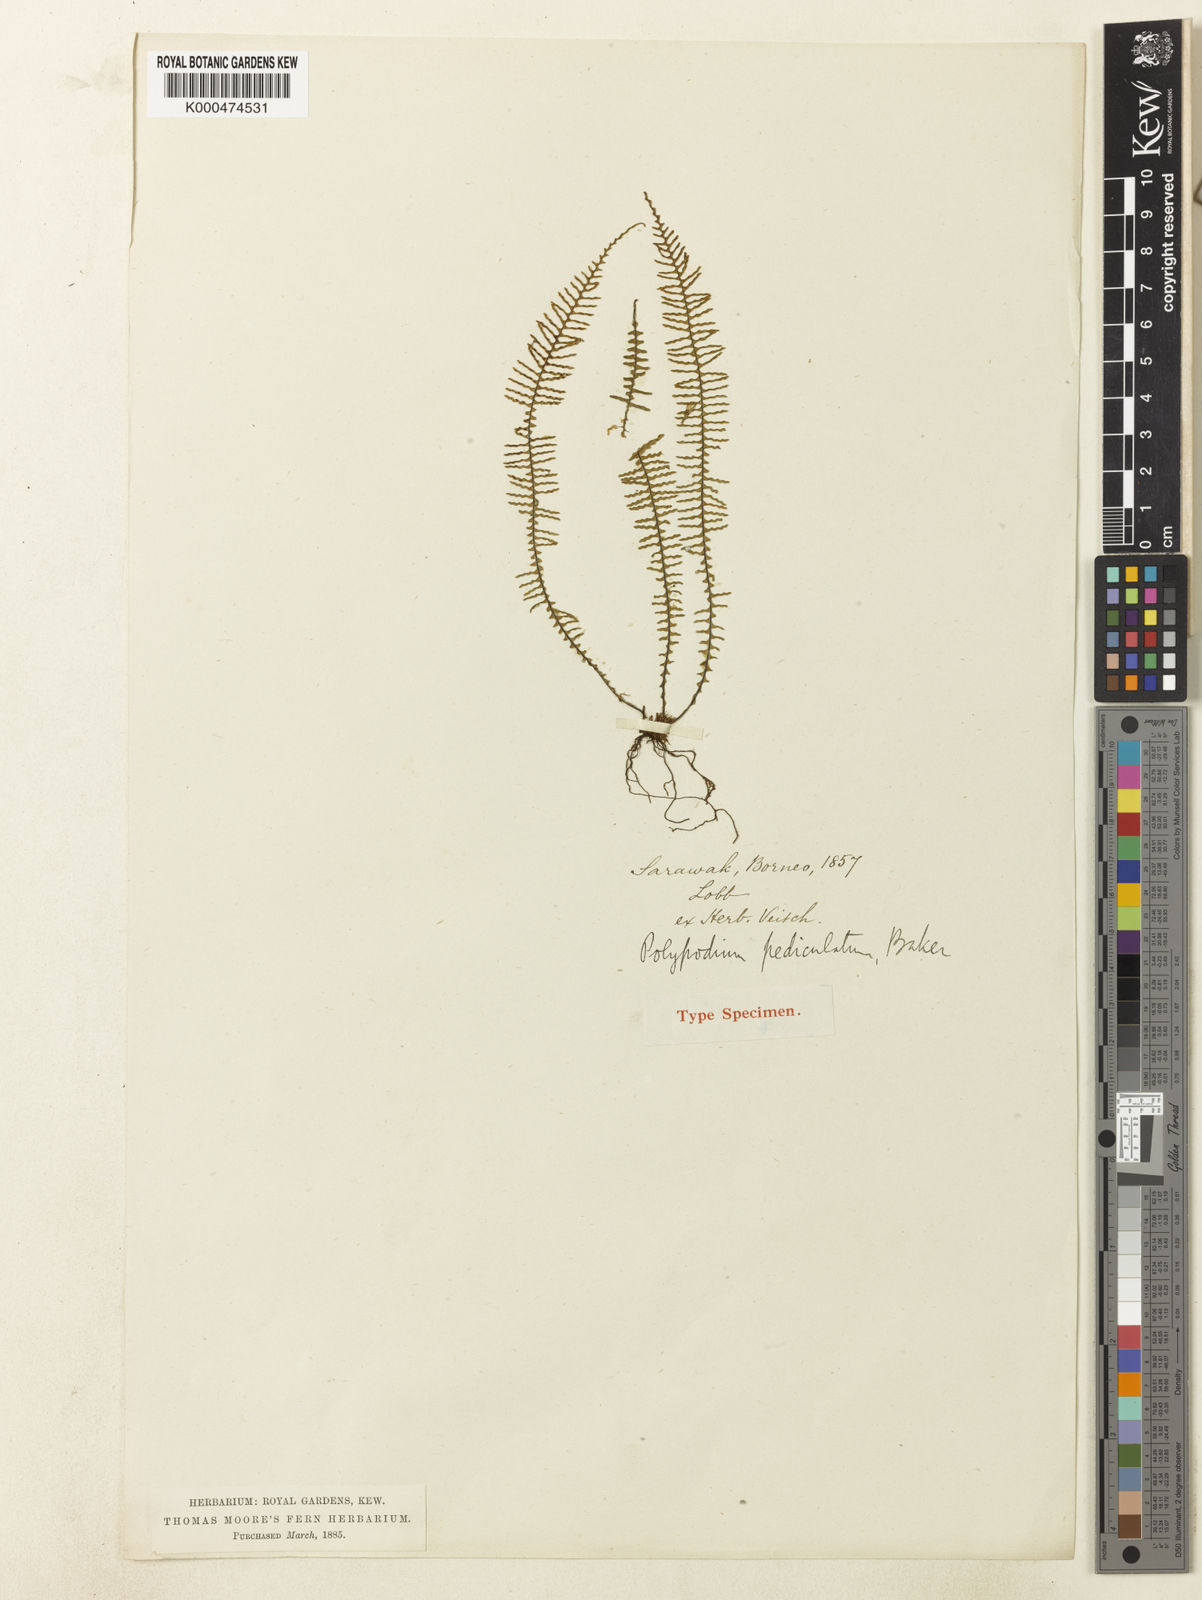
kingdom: Plantae
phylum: Tracheophyta
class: Polypodiopsida
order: Polypodiales
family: Polypodiaceae
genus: Ctenopterella
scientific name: Ctenopterella pediculata
